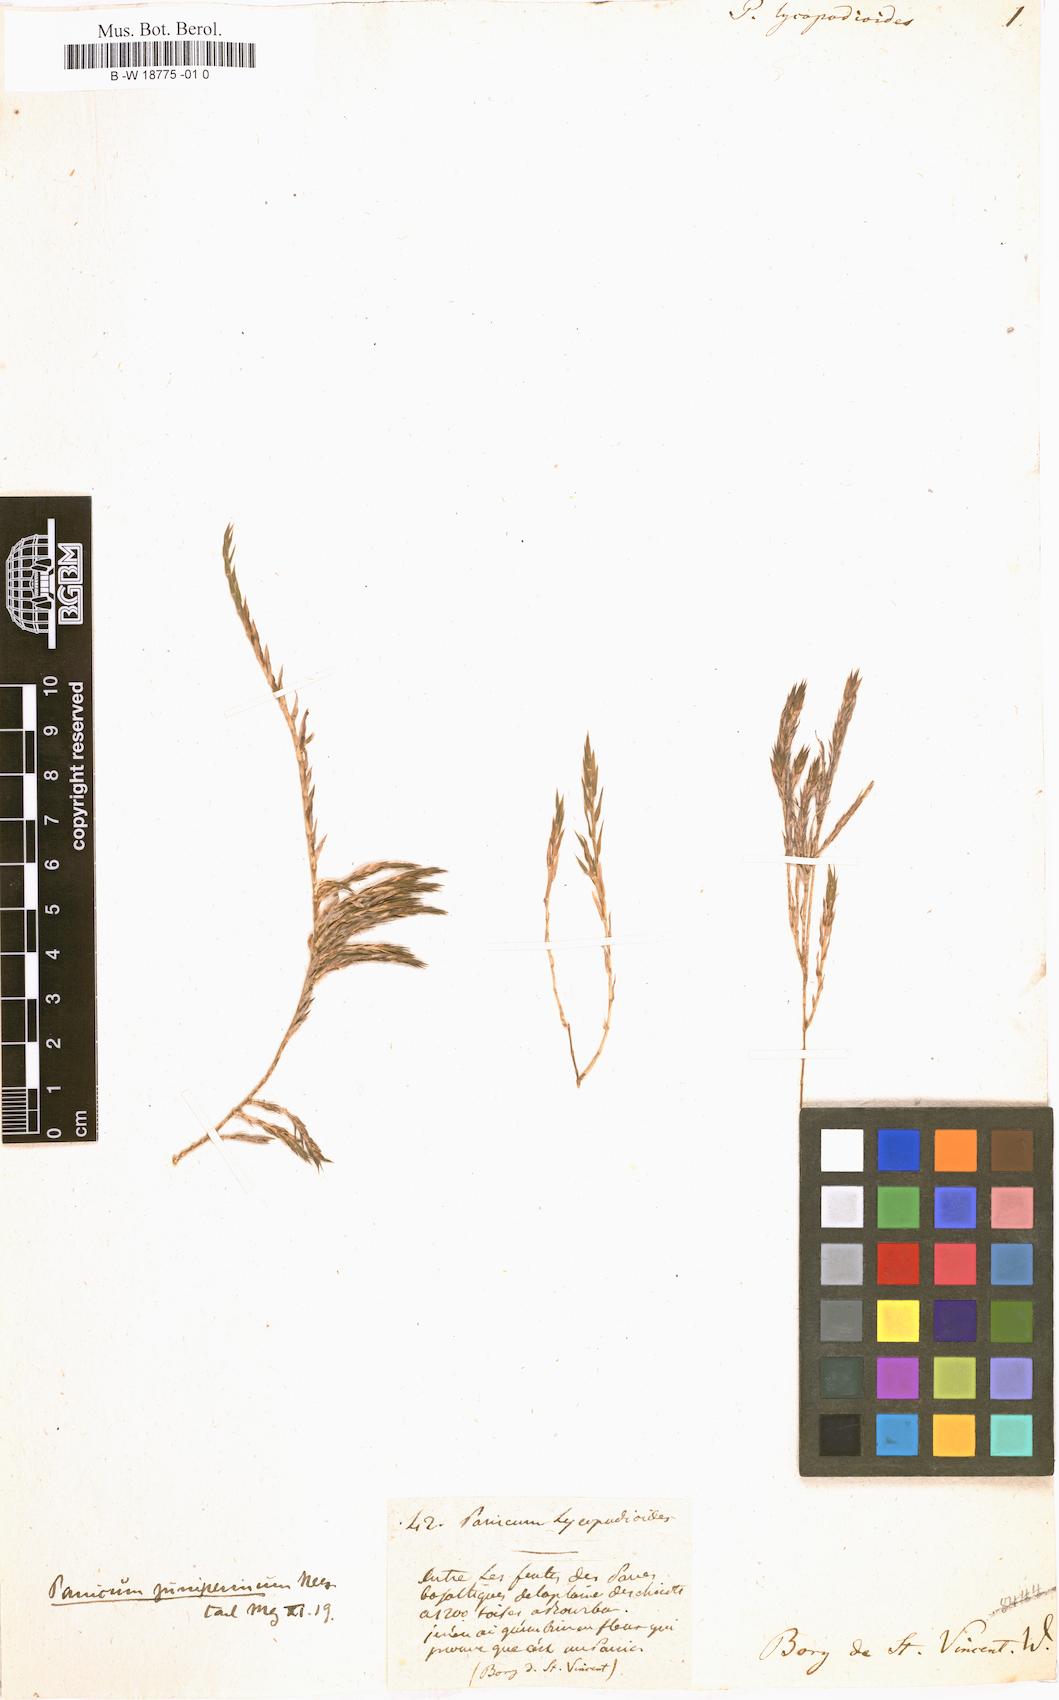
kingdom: Plantae
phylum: Tracheophyta
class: Liliopsida
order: Poales
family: Poaceae
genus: Panicum
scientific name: Panicum lycopodioides
